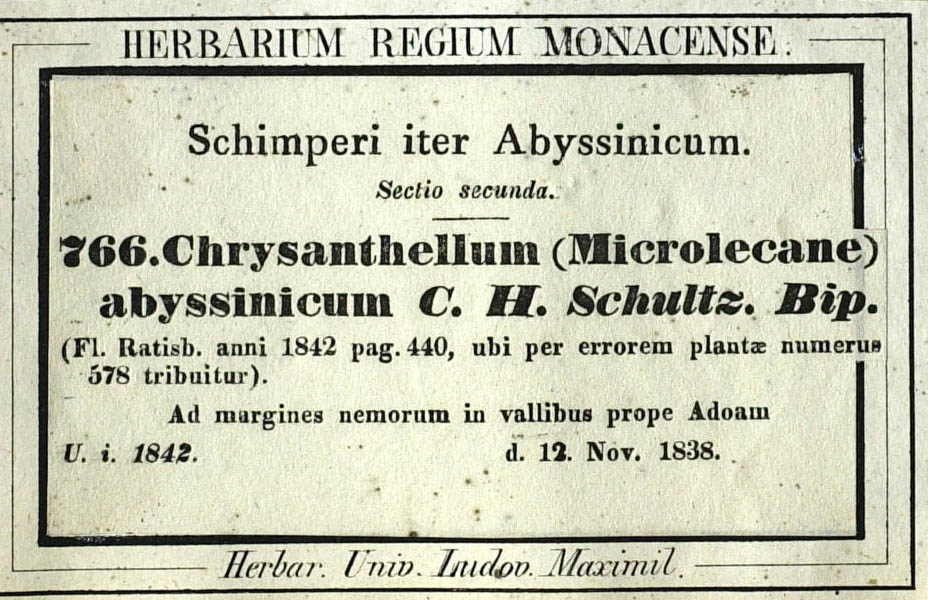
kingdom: Plantae
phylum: Tracheophyta
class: Magnoliopsida
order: Asterales
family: Asteraceae
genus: Bidens
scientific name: Bidens setigera
